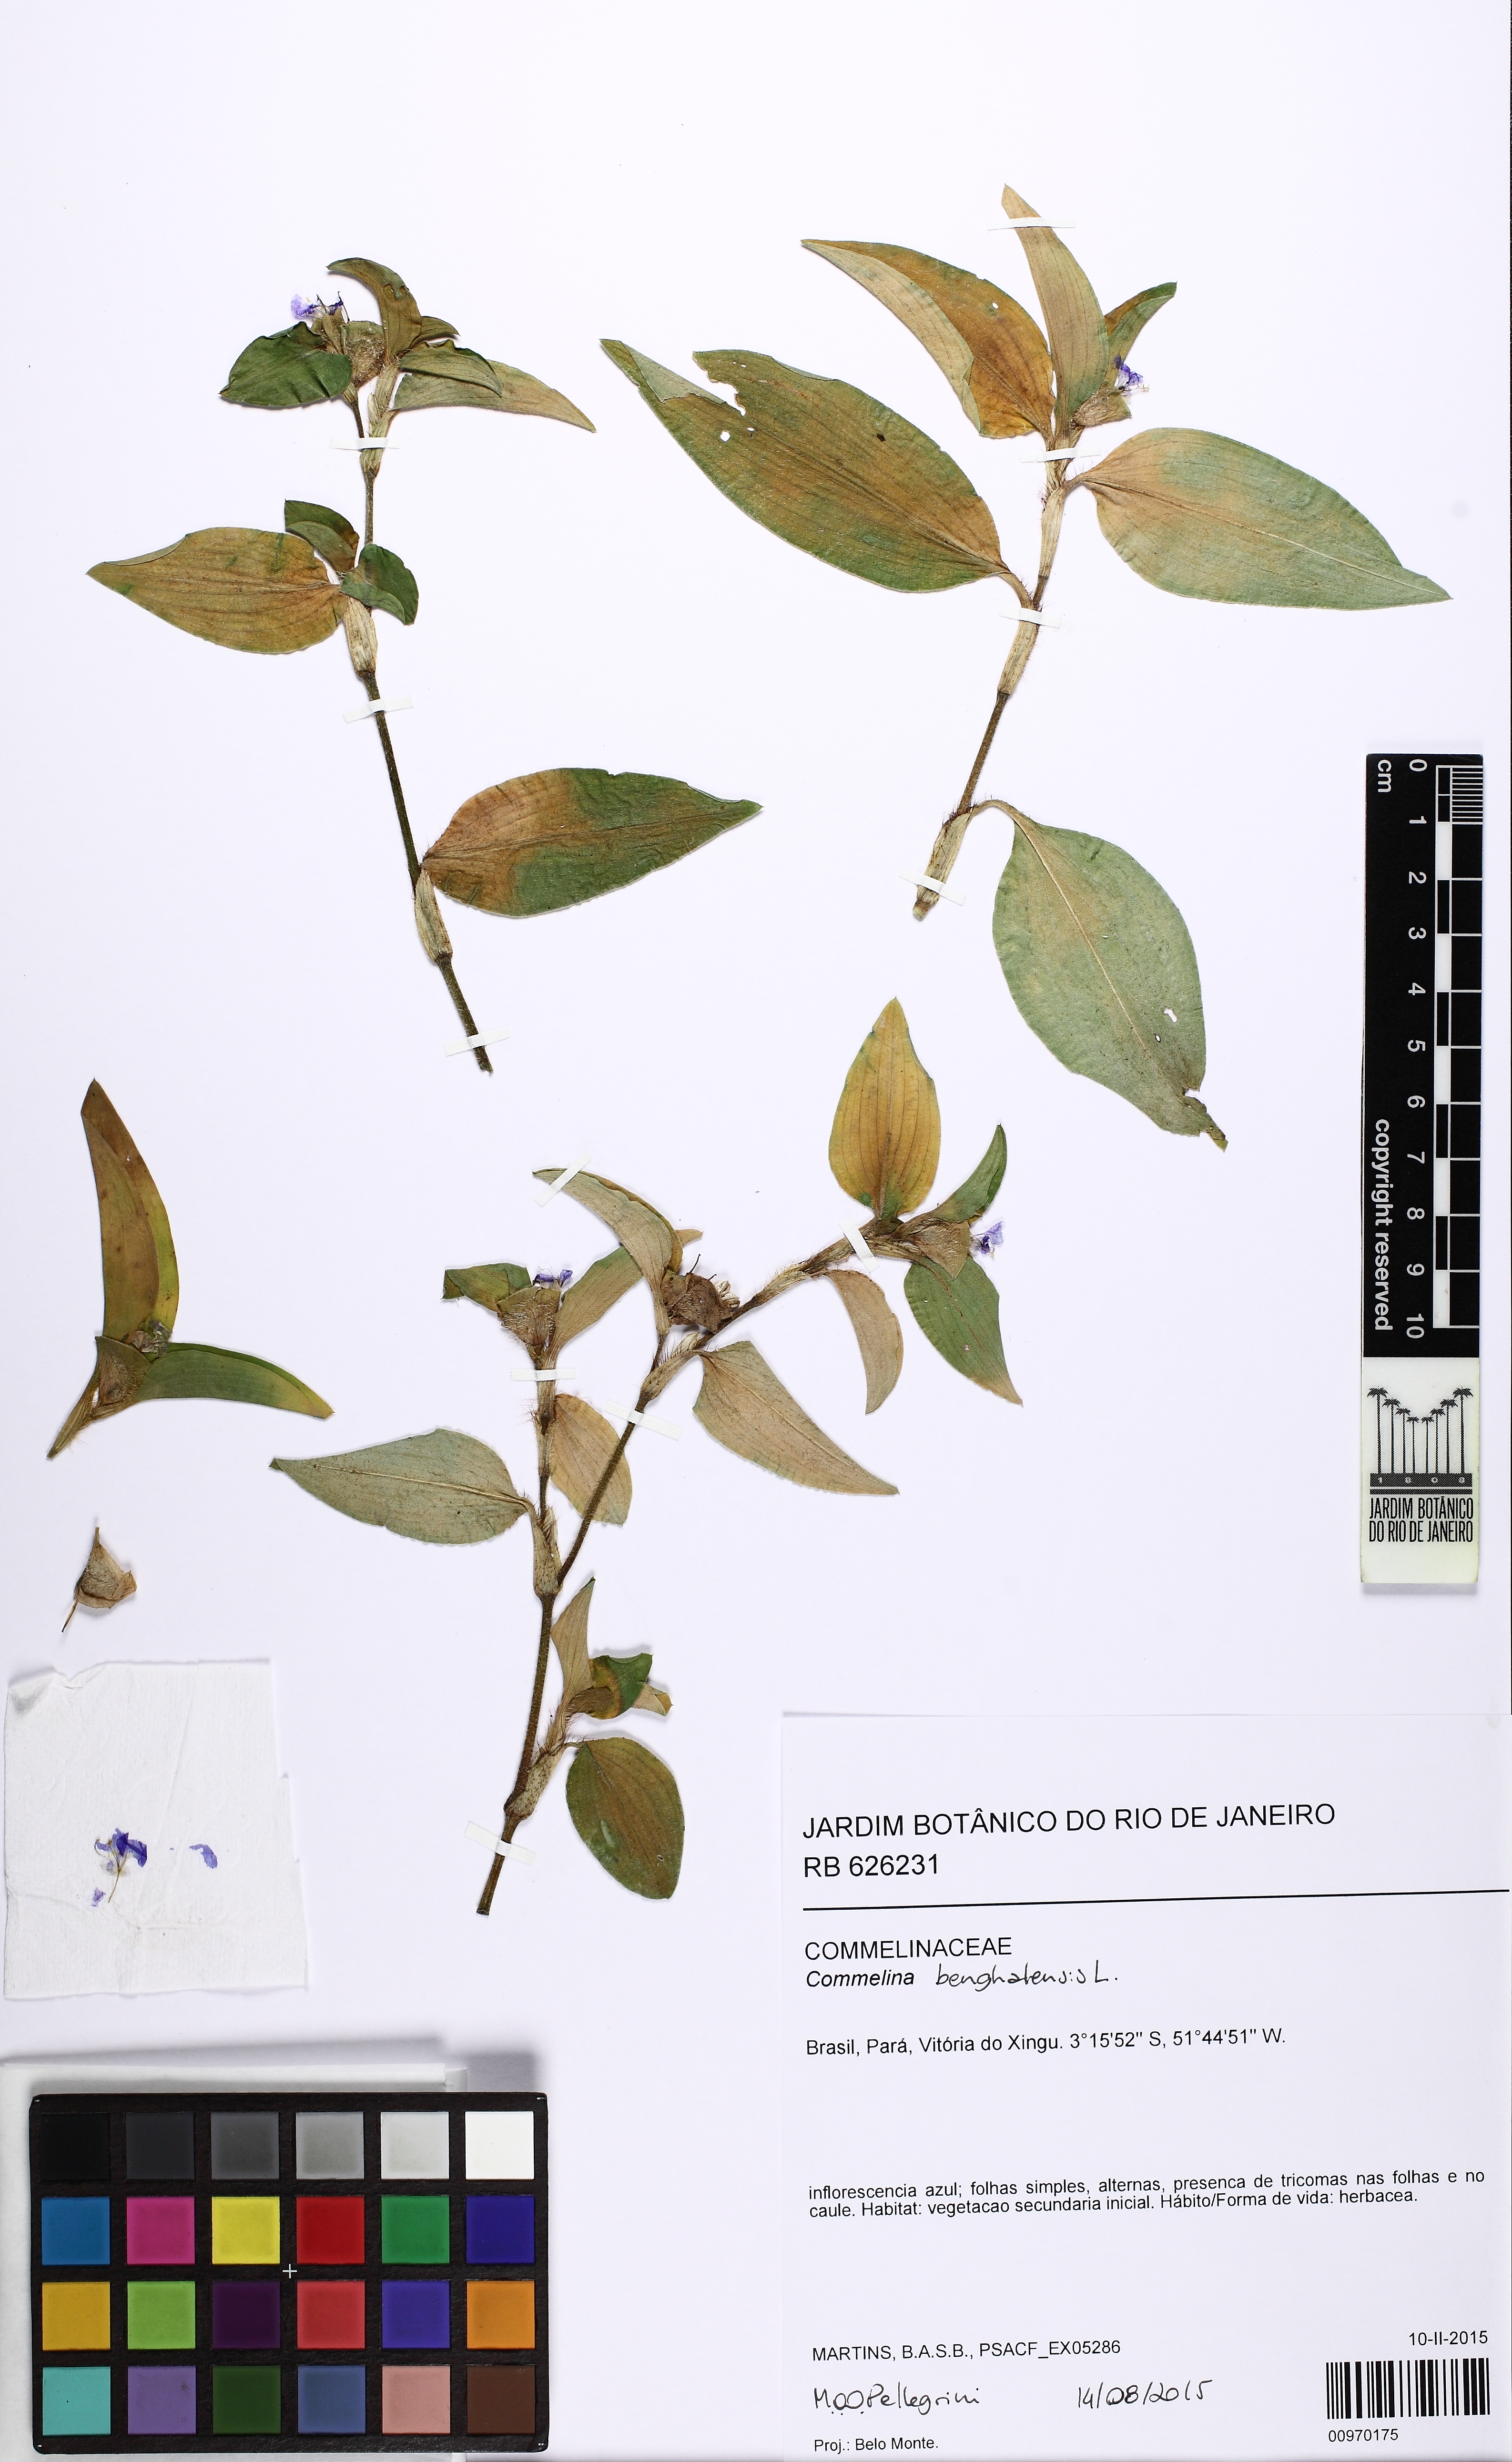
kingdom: Plantae
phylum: Tracheophyta
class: Liliopsida
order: Commelinales
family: Commelinaceae
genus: Commelina
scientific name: Commelina benghalensis
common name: Jio
